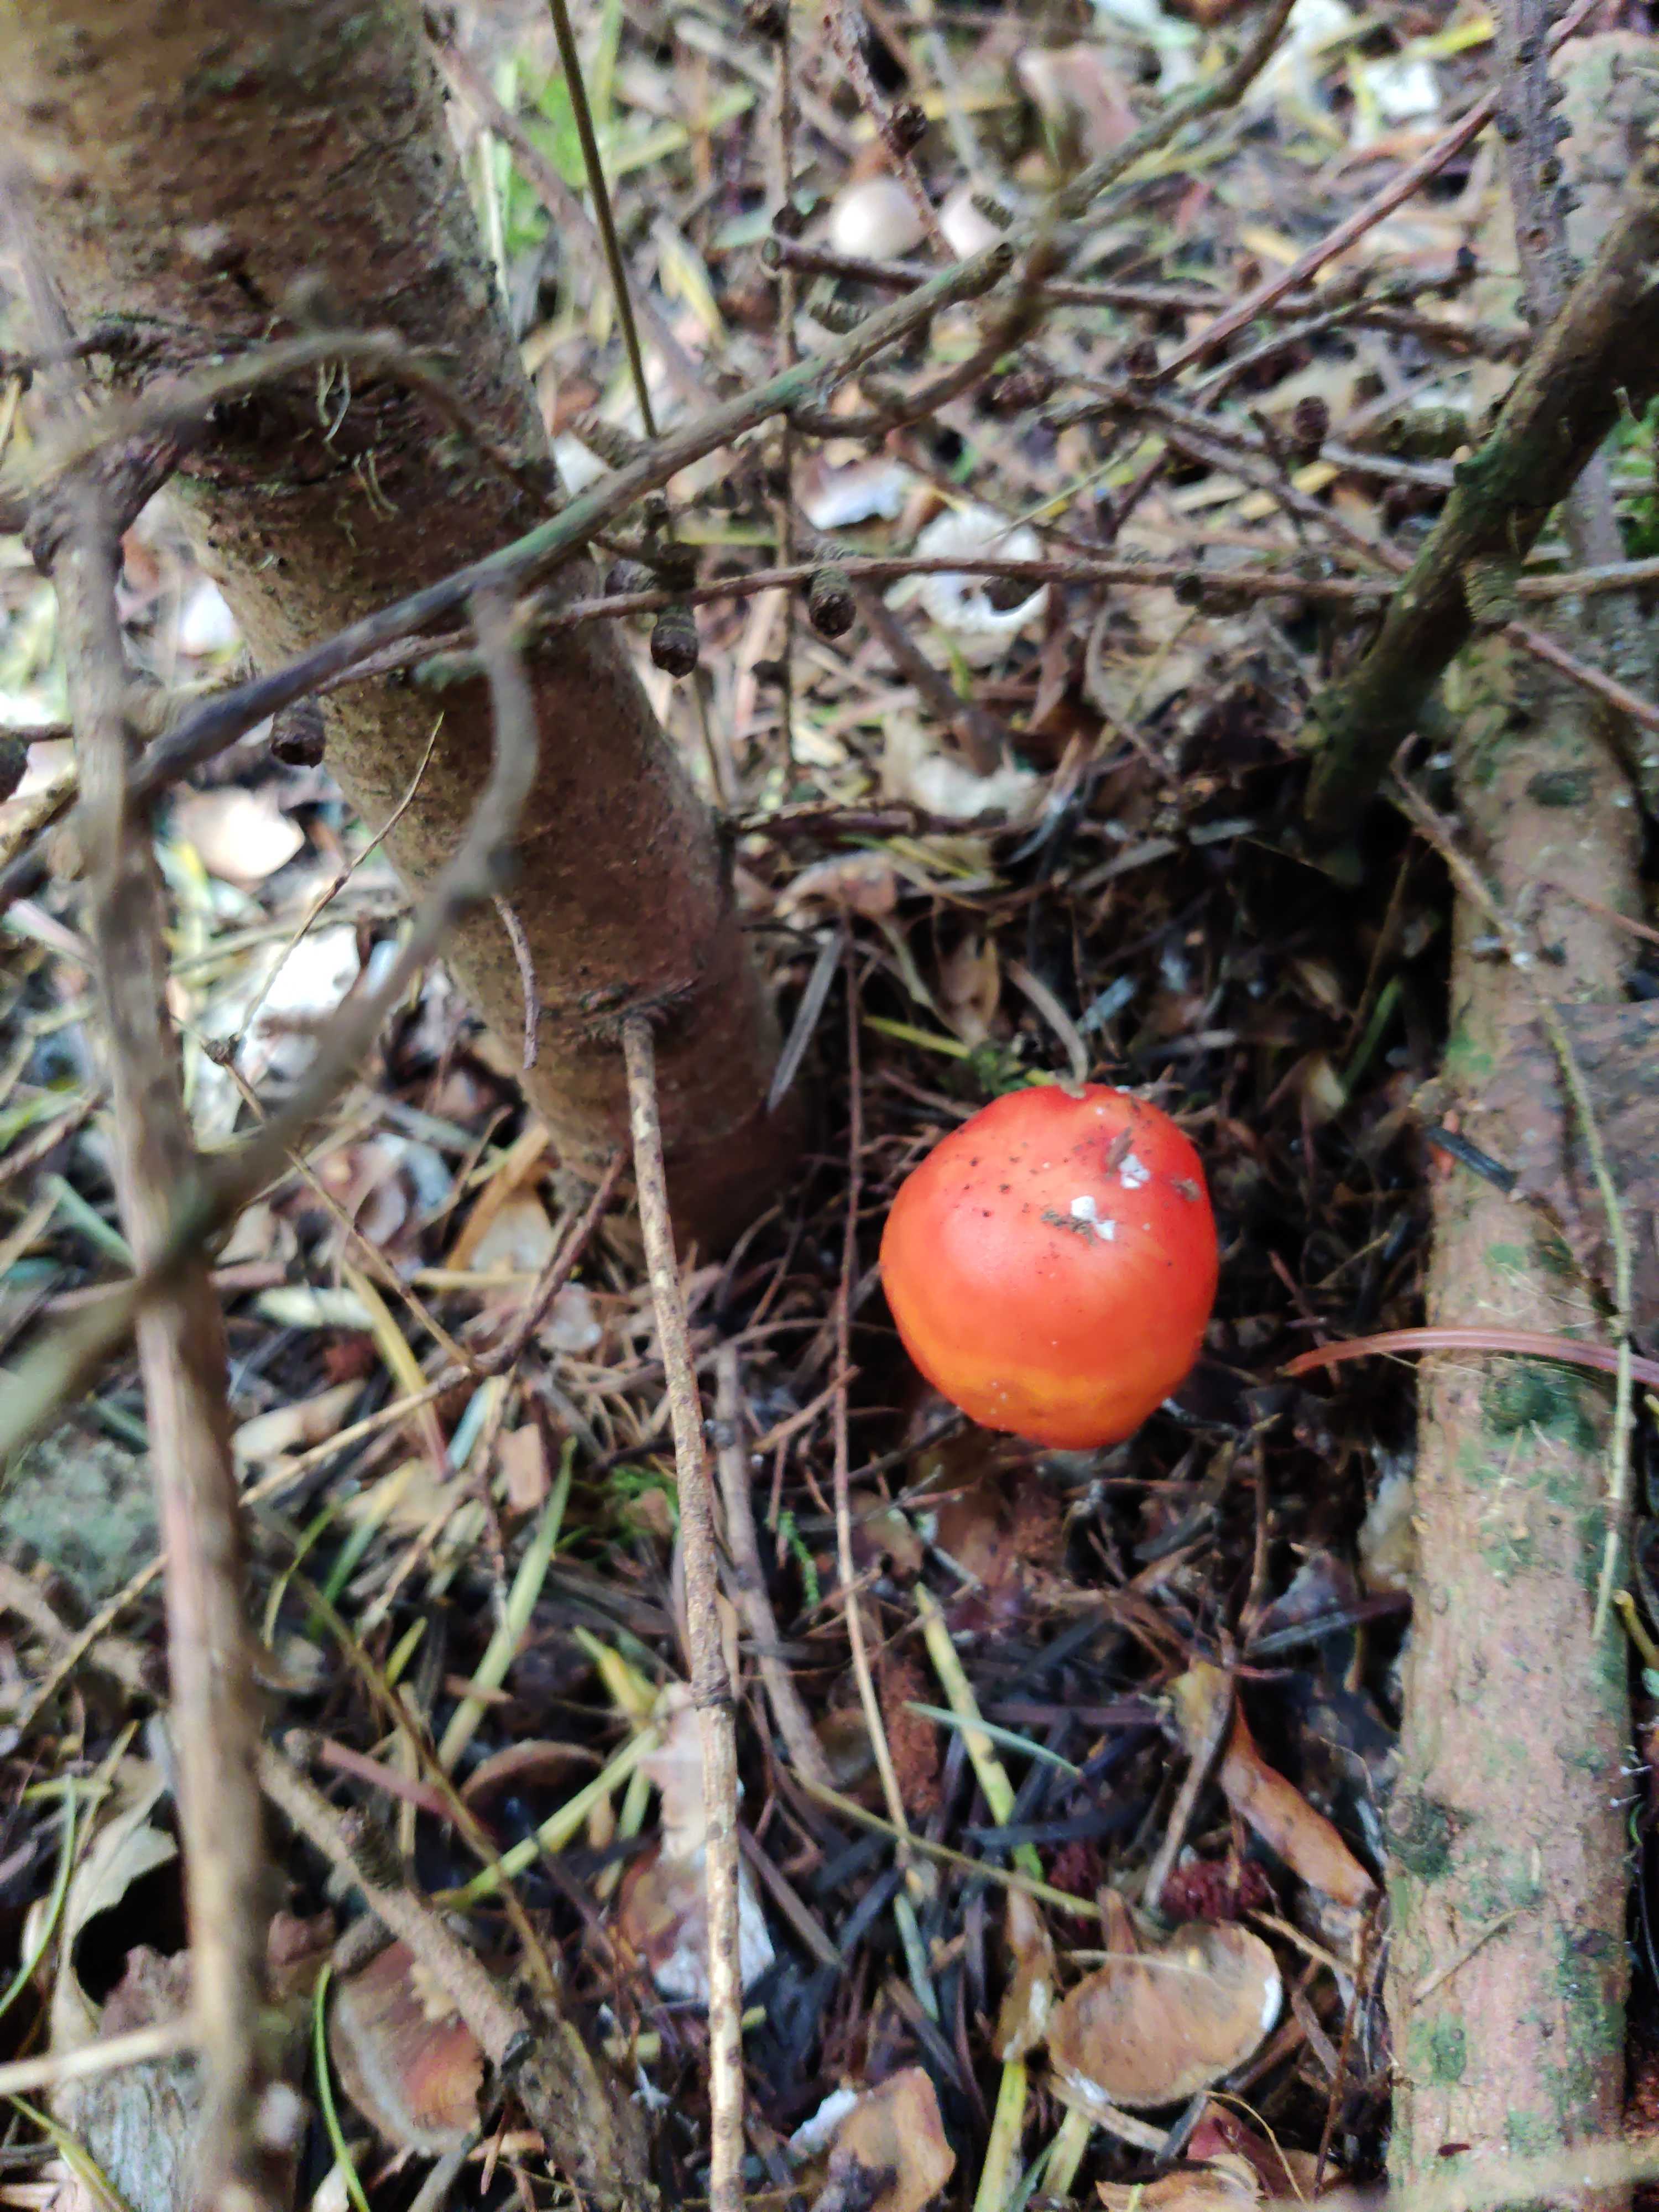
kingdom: Fungi
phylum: Basidiomycota
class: Agaricomycetes
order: Agaricales
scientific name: Agaricales
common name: champignonordenen
